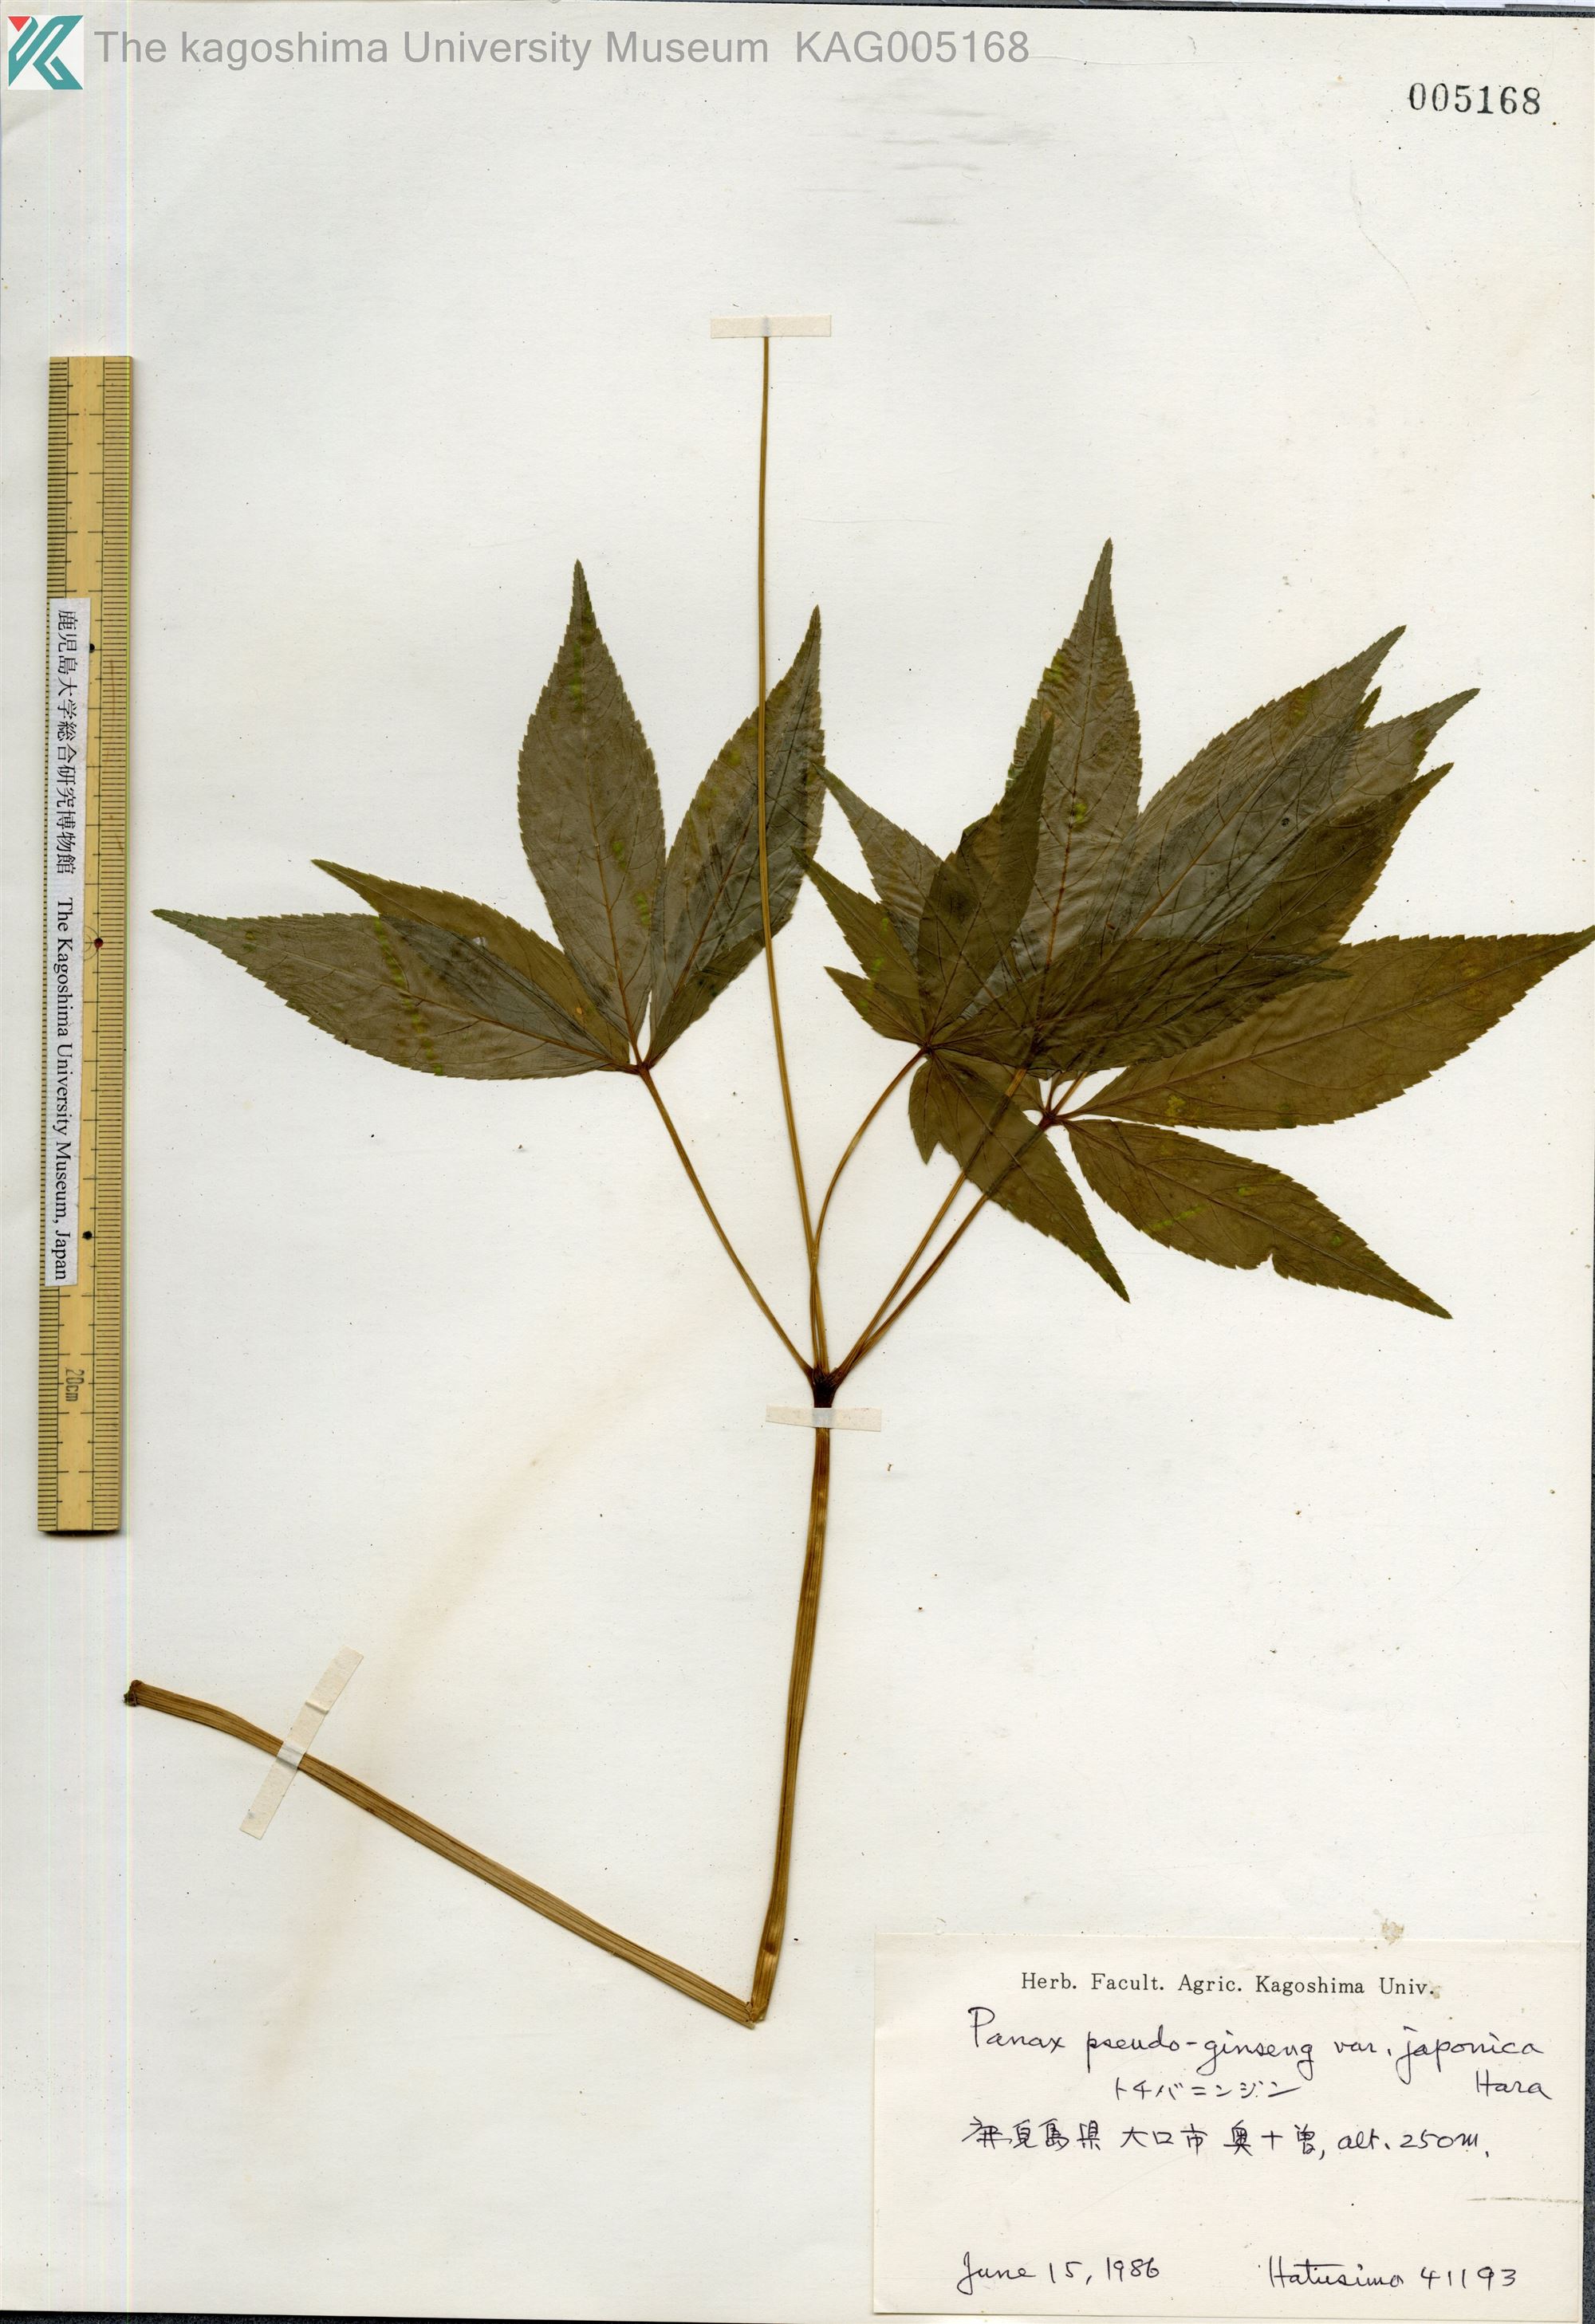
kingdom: Plantae
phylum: Tracheophyta
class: Magnoliopsida
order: Apiales
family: Araliaceae
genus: Panax
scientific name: Panax japonicus
